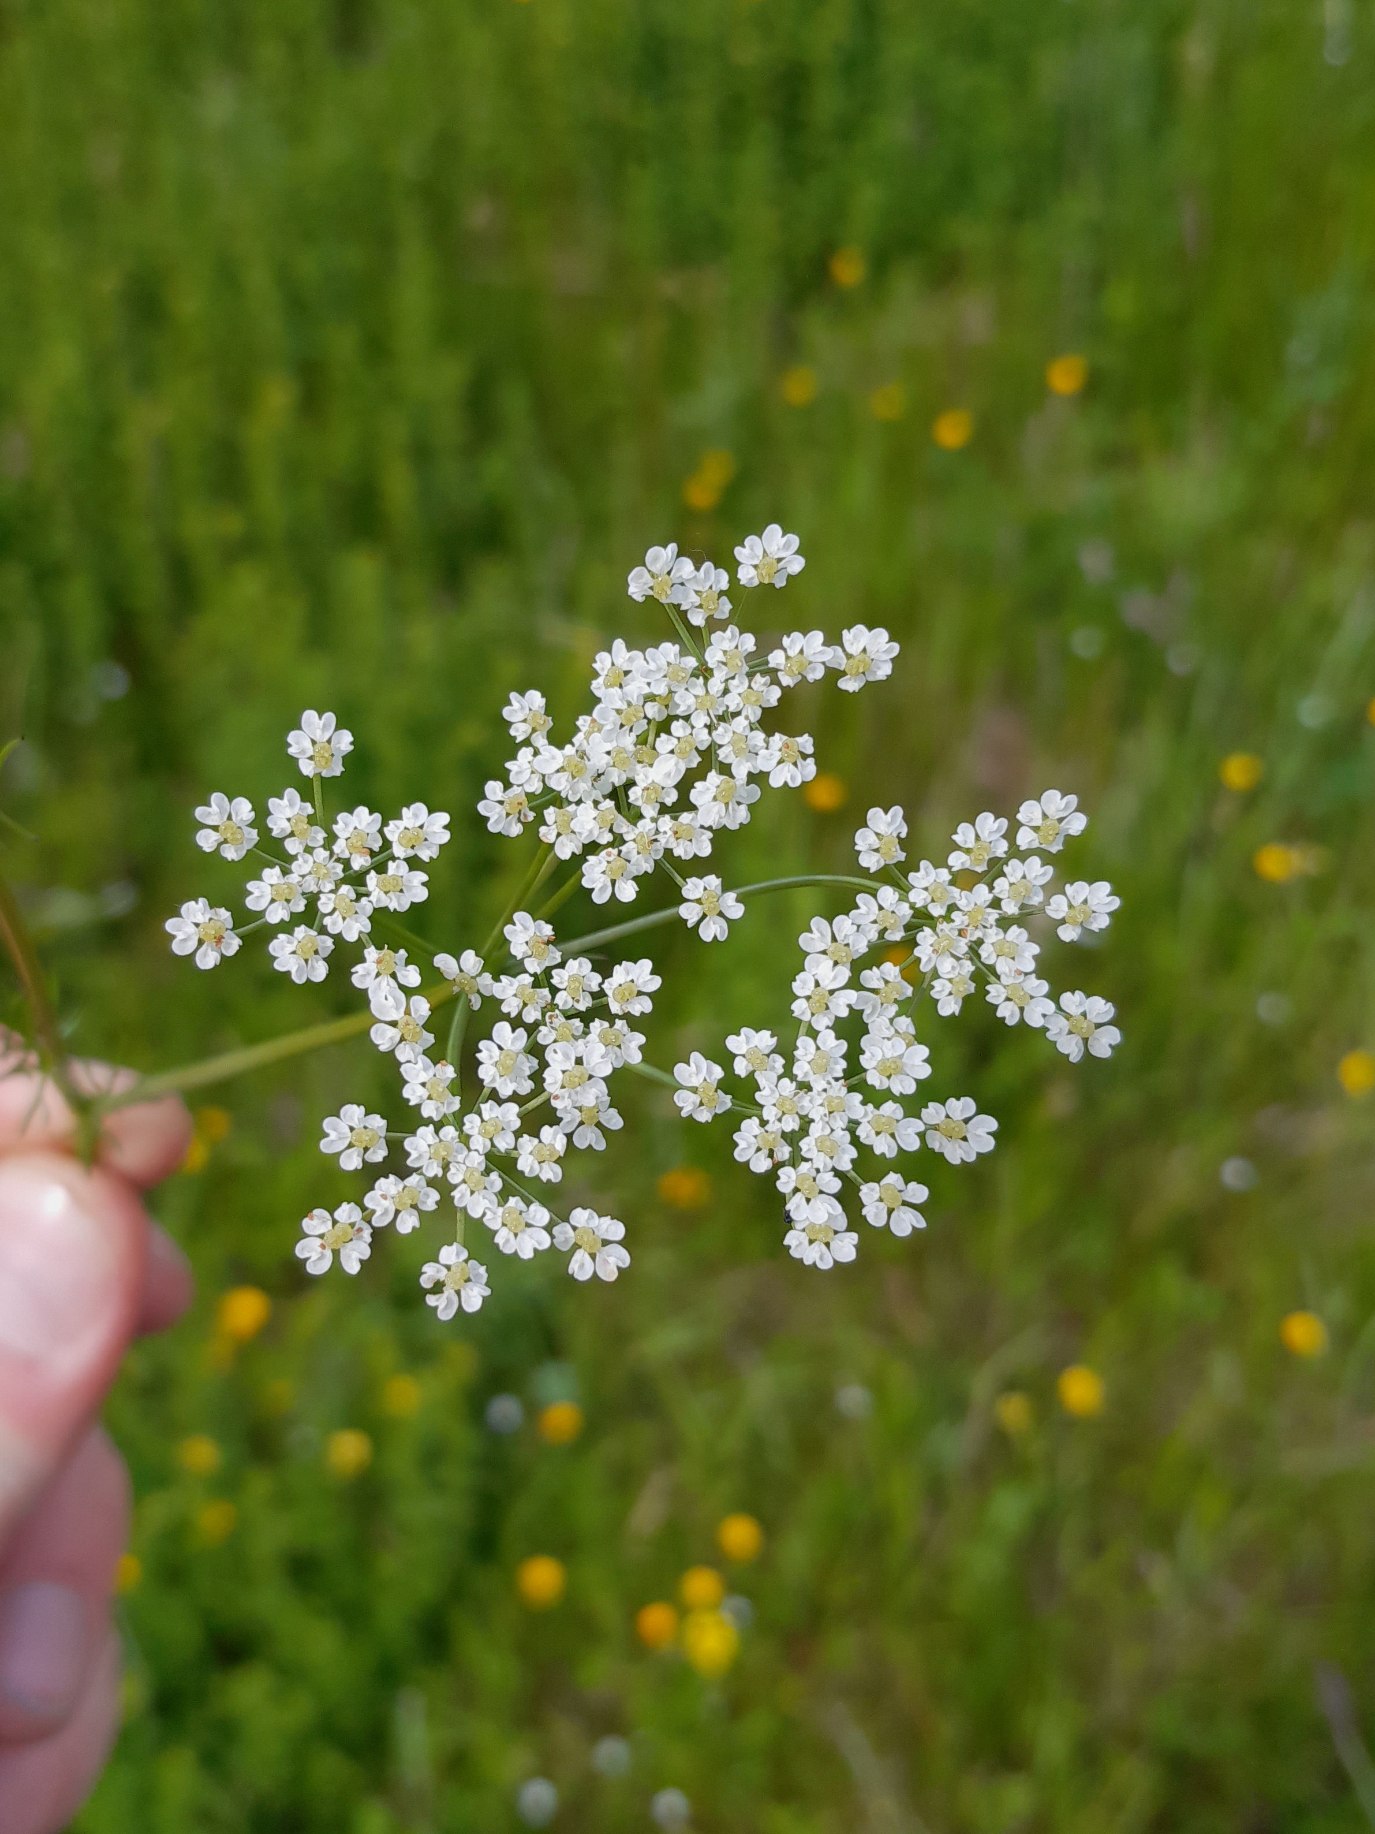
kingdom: Plantae
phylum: Tracheophyta
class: Magnoliopsida
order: Apiales
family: Apiaceae
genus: Carum
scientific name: Carum carvi
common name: Kommen
